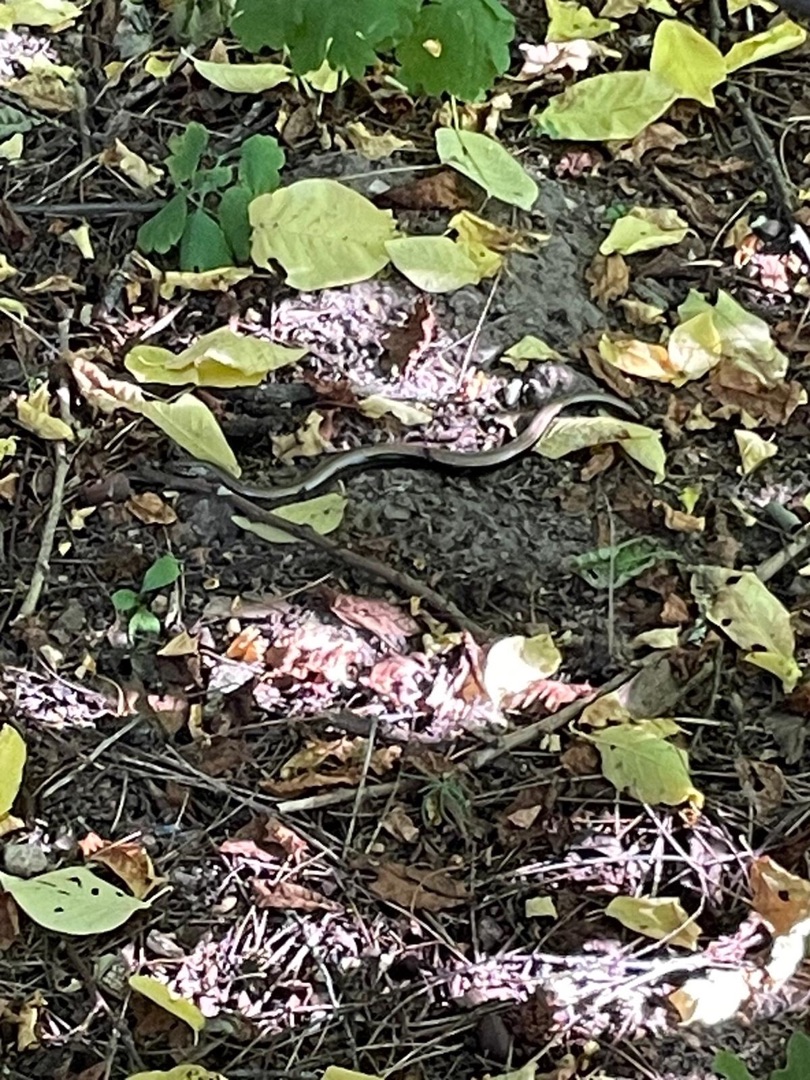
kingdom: Animalia
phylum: Chordata
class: Squamata
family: Anguidae
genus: Anguis
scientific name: Anguis fragilis
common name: Stålorm
